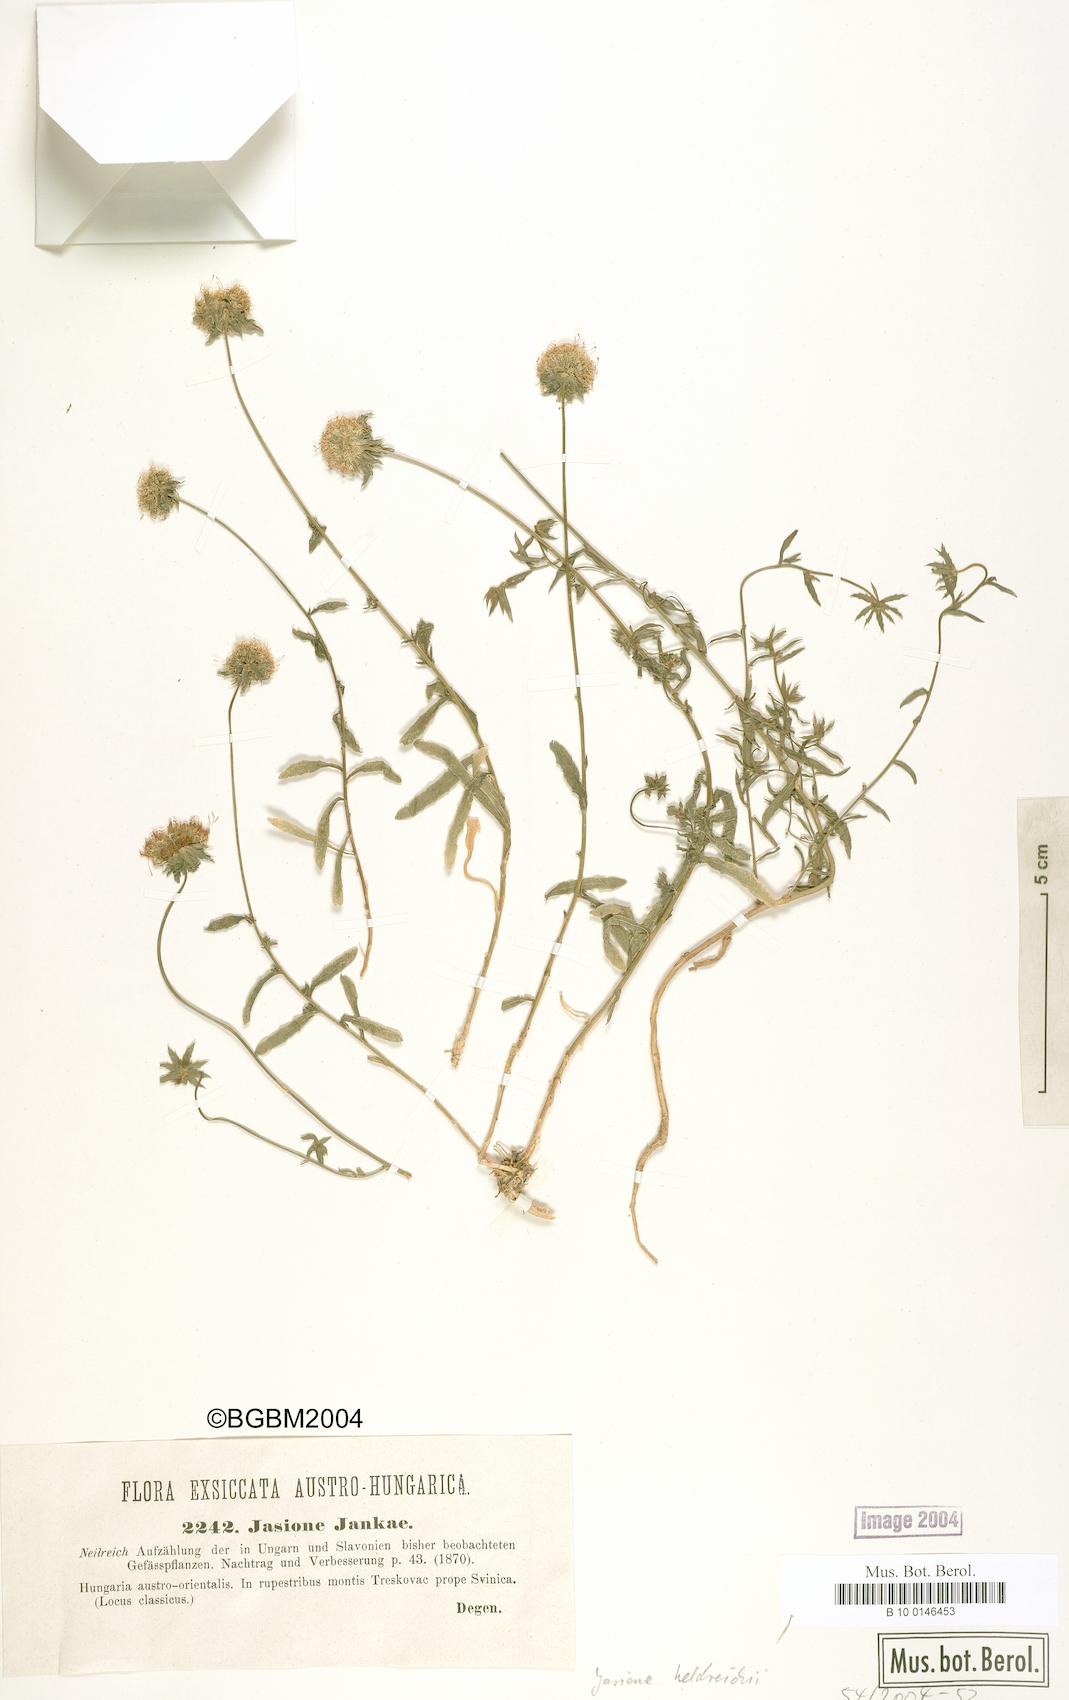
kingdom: Plantae
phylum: Tracheophyta
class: Magnoliopsida
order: Asterales
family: Campanulaceae
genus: Jasione
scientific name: Jasione heldreichii
